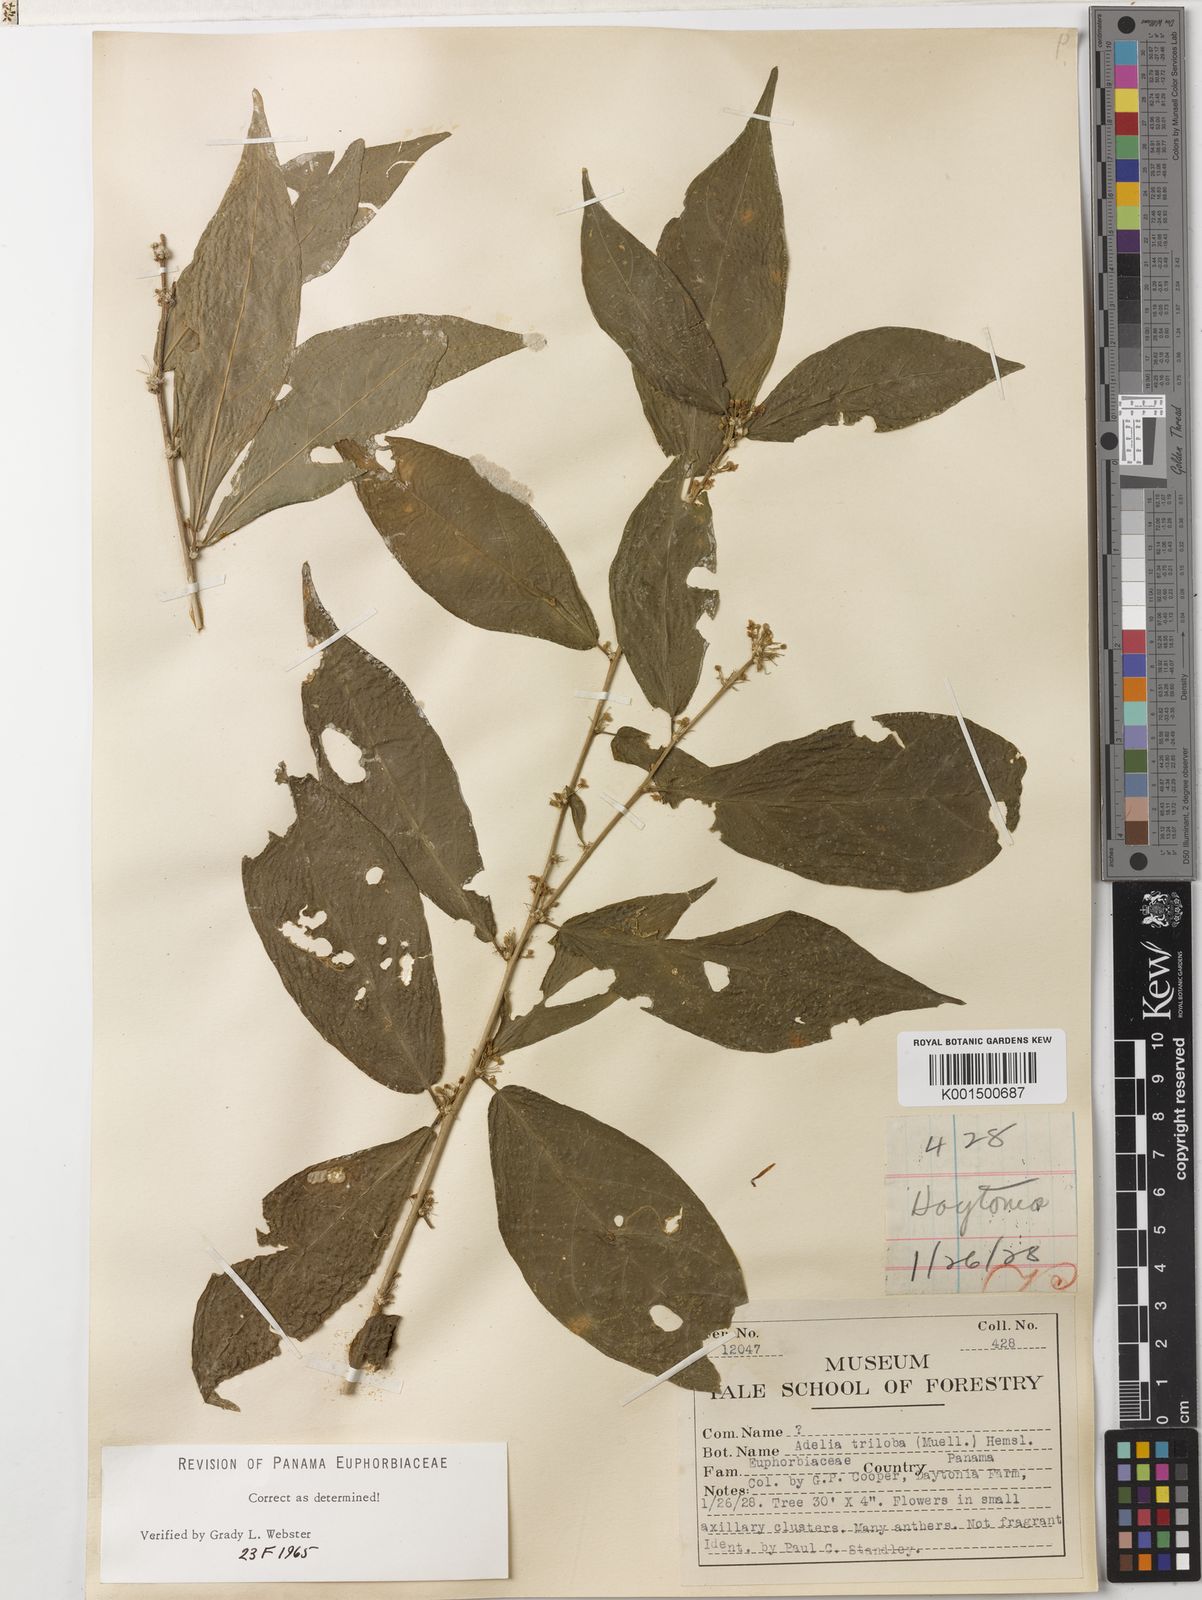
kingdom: Plantae
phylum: Tracheophyta
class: Magnoliopsida
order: Malpighiales
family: Euphorbiaceae
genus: Adelia
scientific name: Adelia triloba
